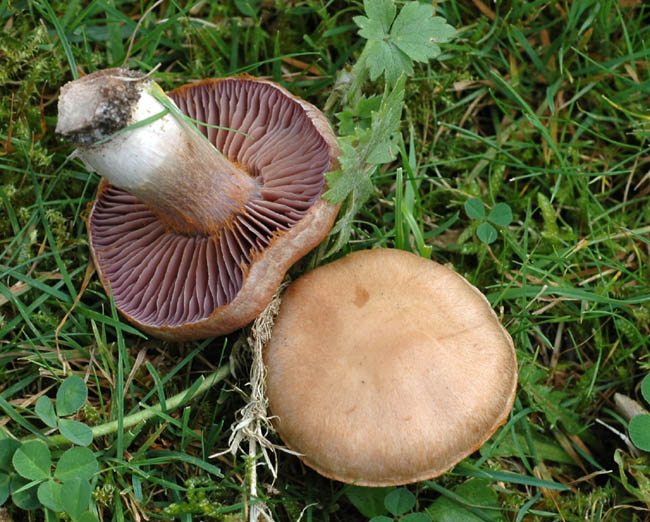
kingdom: Fungi
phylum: Basidiomycota
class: Agaricomycetes
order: Agaricales
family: Cortinariaceae
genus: Cortinarius
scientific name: Cortinarius lucorum
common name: aspe-slørhat
